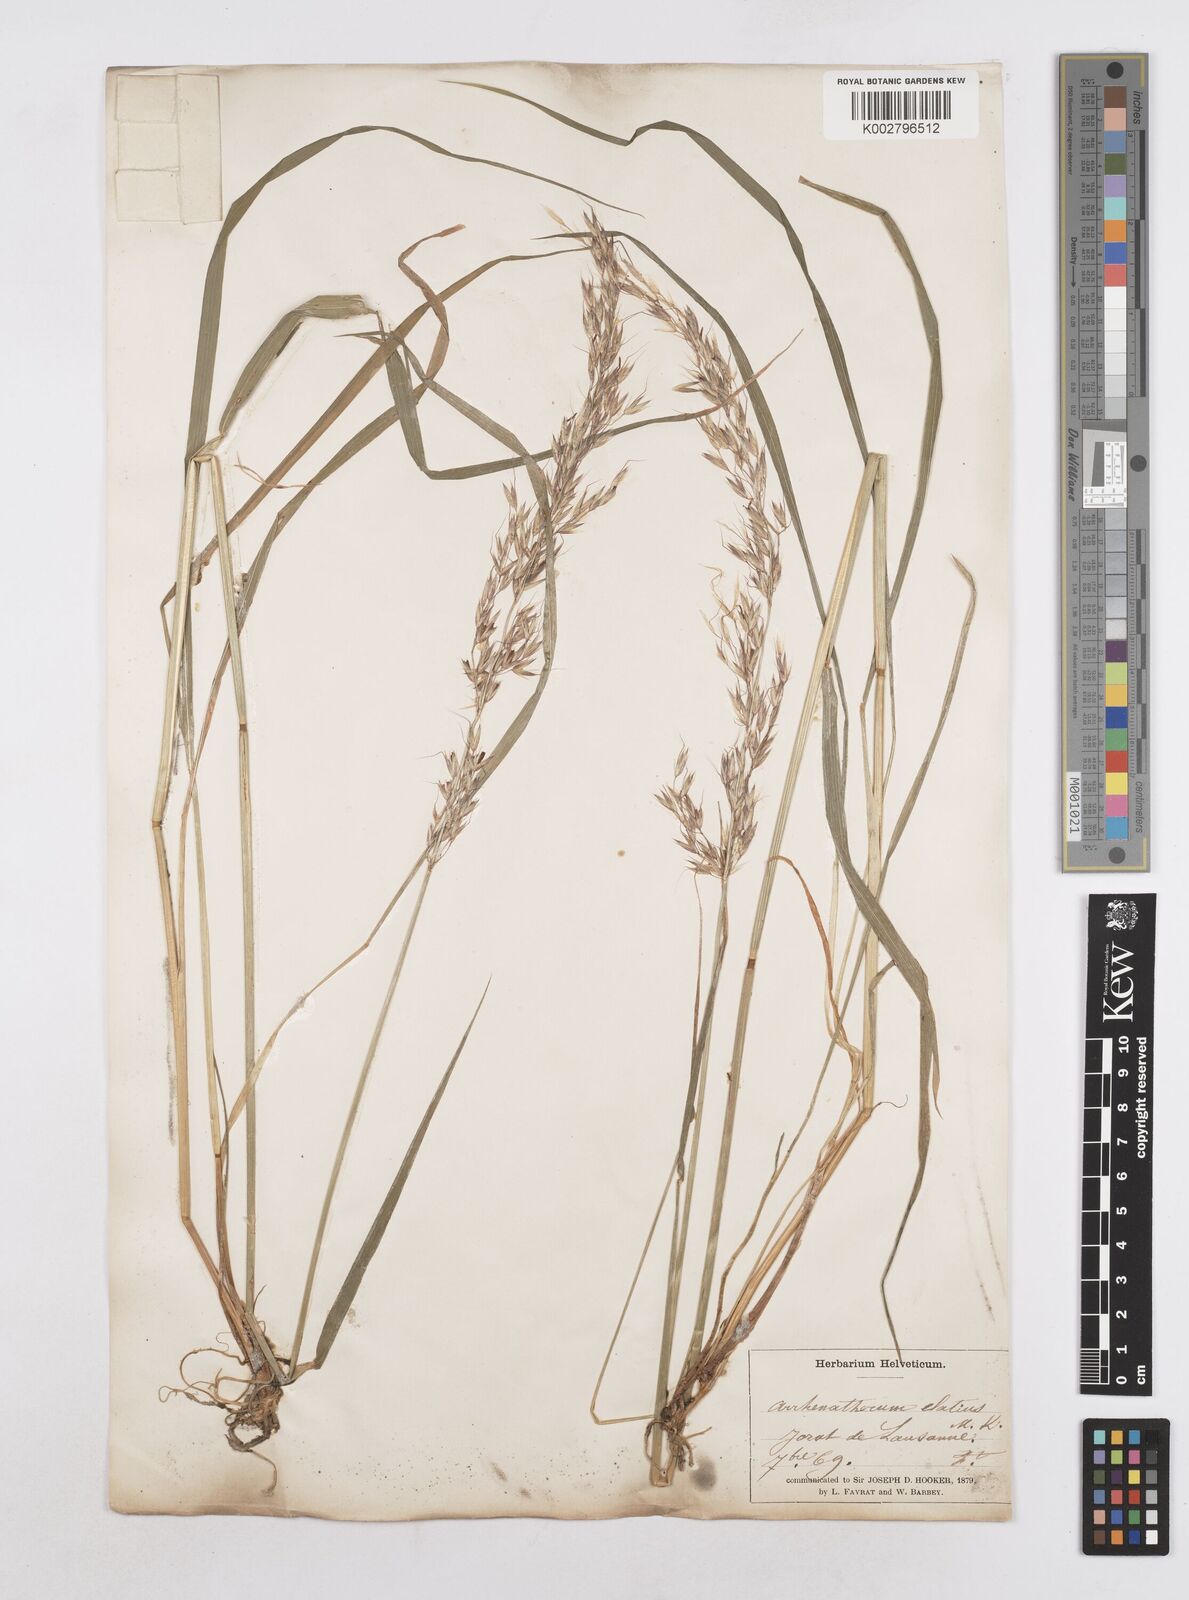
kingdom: Plantae
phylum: Tracheophyta
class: Liliopsida
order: Poales
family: Poaceae
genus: Arrhenatherum
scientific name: Arrhenatherum elatius
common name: Tall oatgrass
